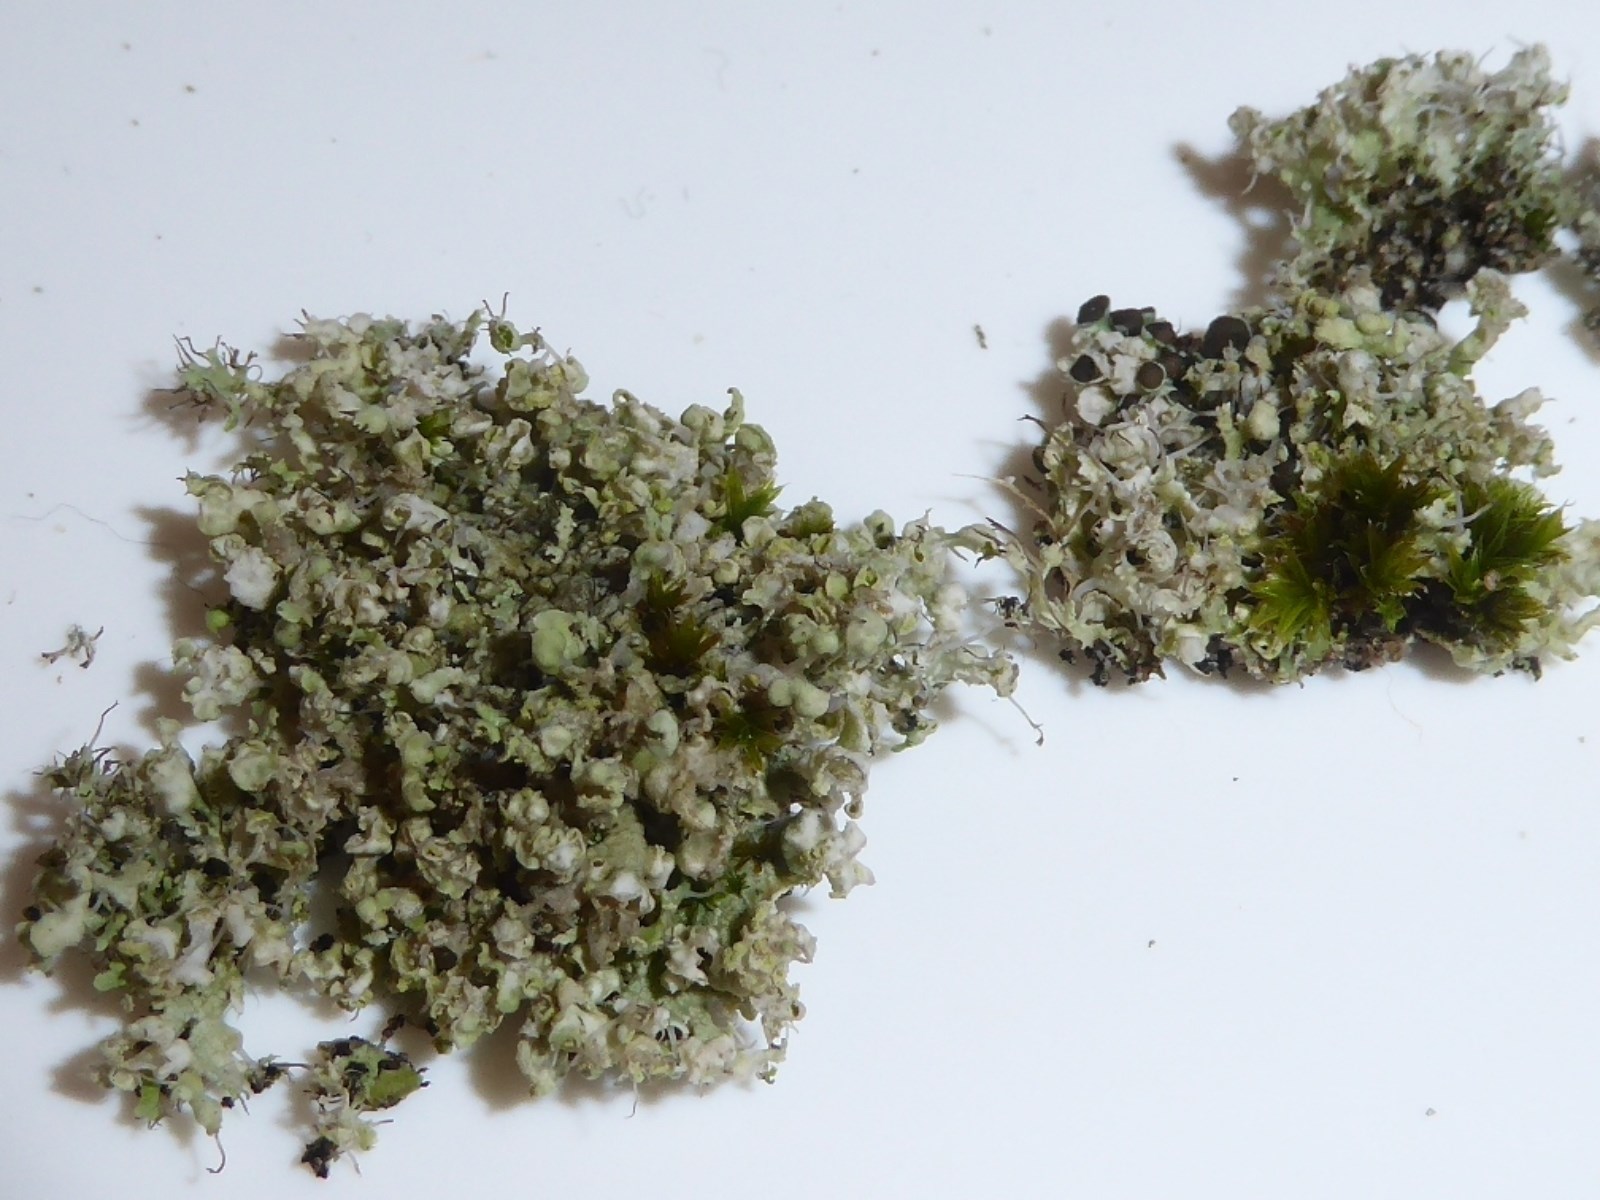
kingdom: Fungi
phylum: Ascomycota
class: Lecanoromycetes
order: Caliciales
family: Physciaceae
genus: Physcia
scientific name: Physcia adscendens
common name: hætte-rosetlav
